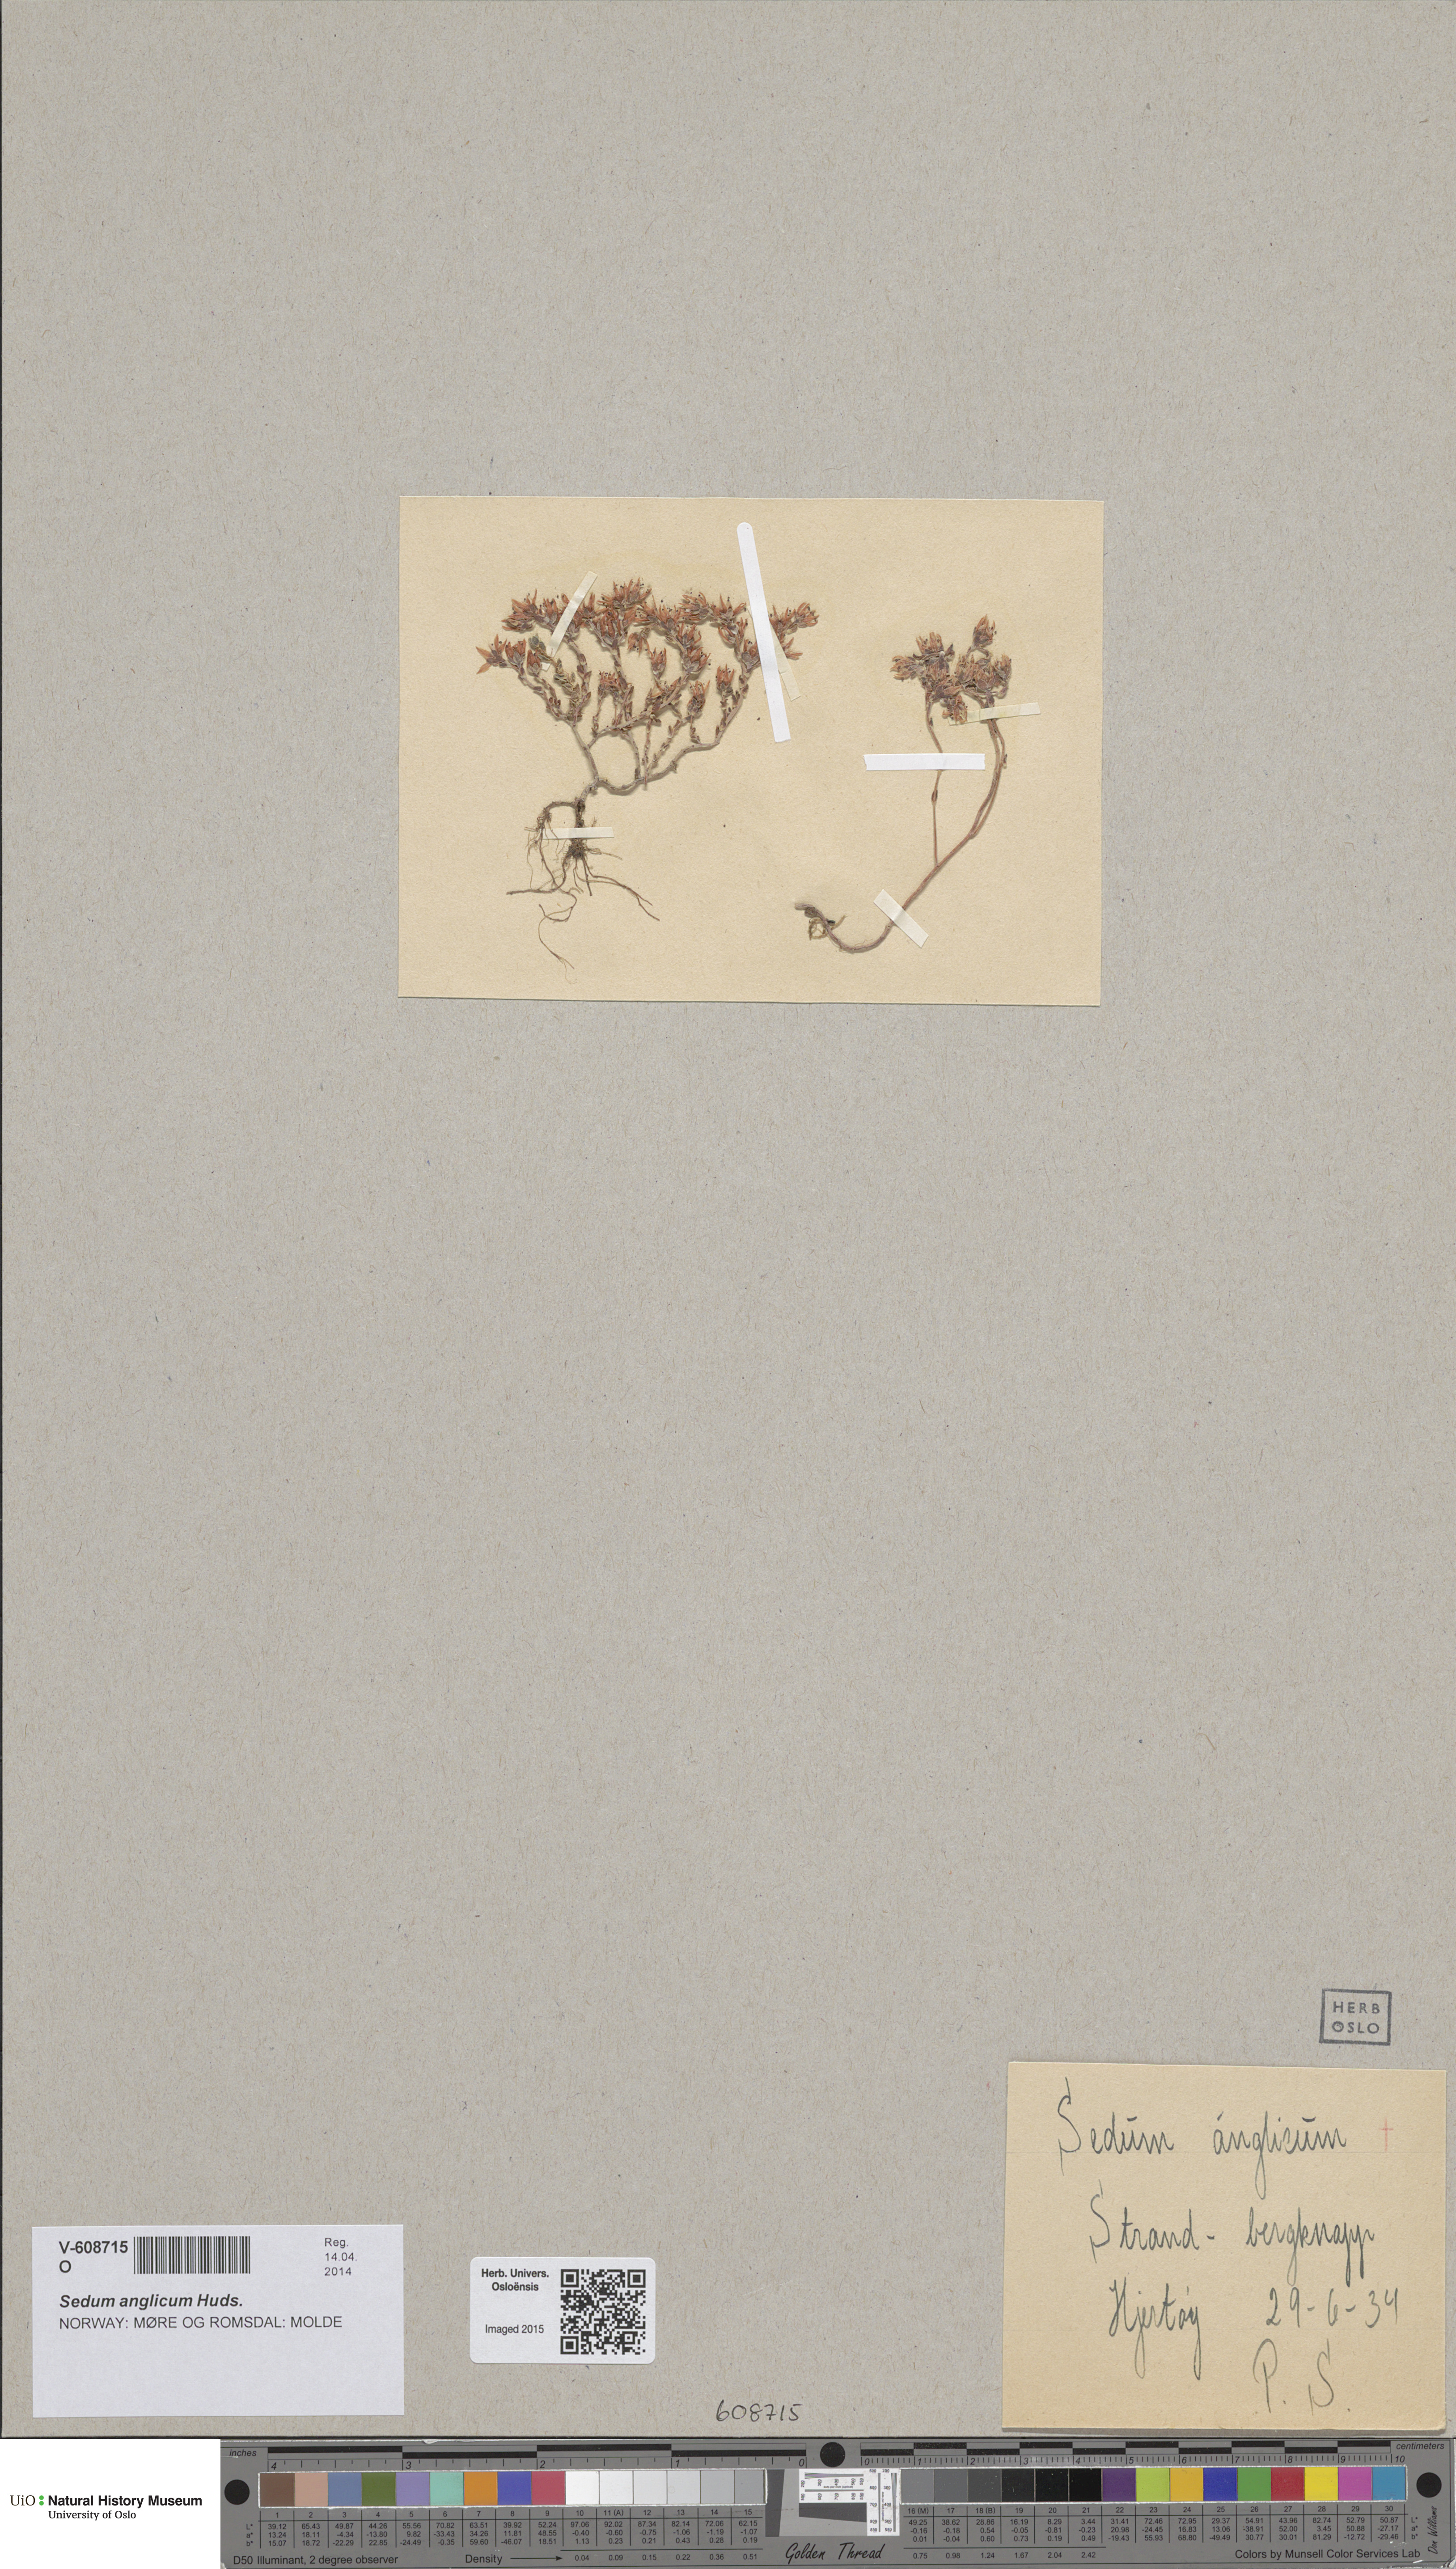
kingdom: Plantae
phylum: Tracheophyta
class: Magnoliopsida
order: Saxifragales
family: Crassulaceae
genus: Sedum
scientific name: Sedum anglicum
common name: English stonecrop
